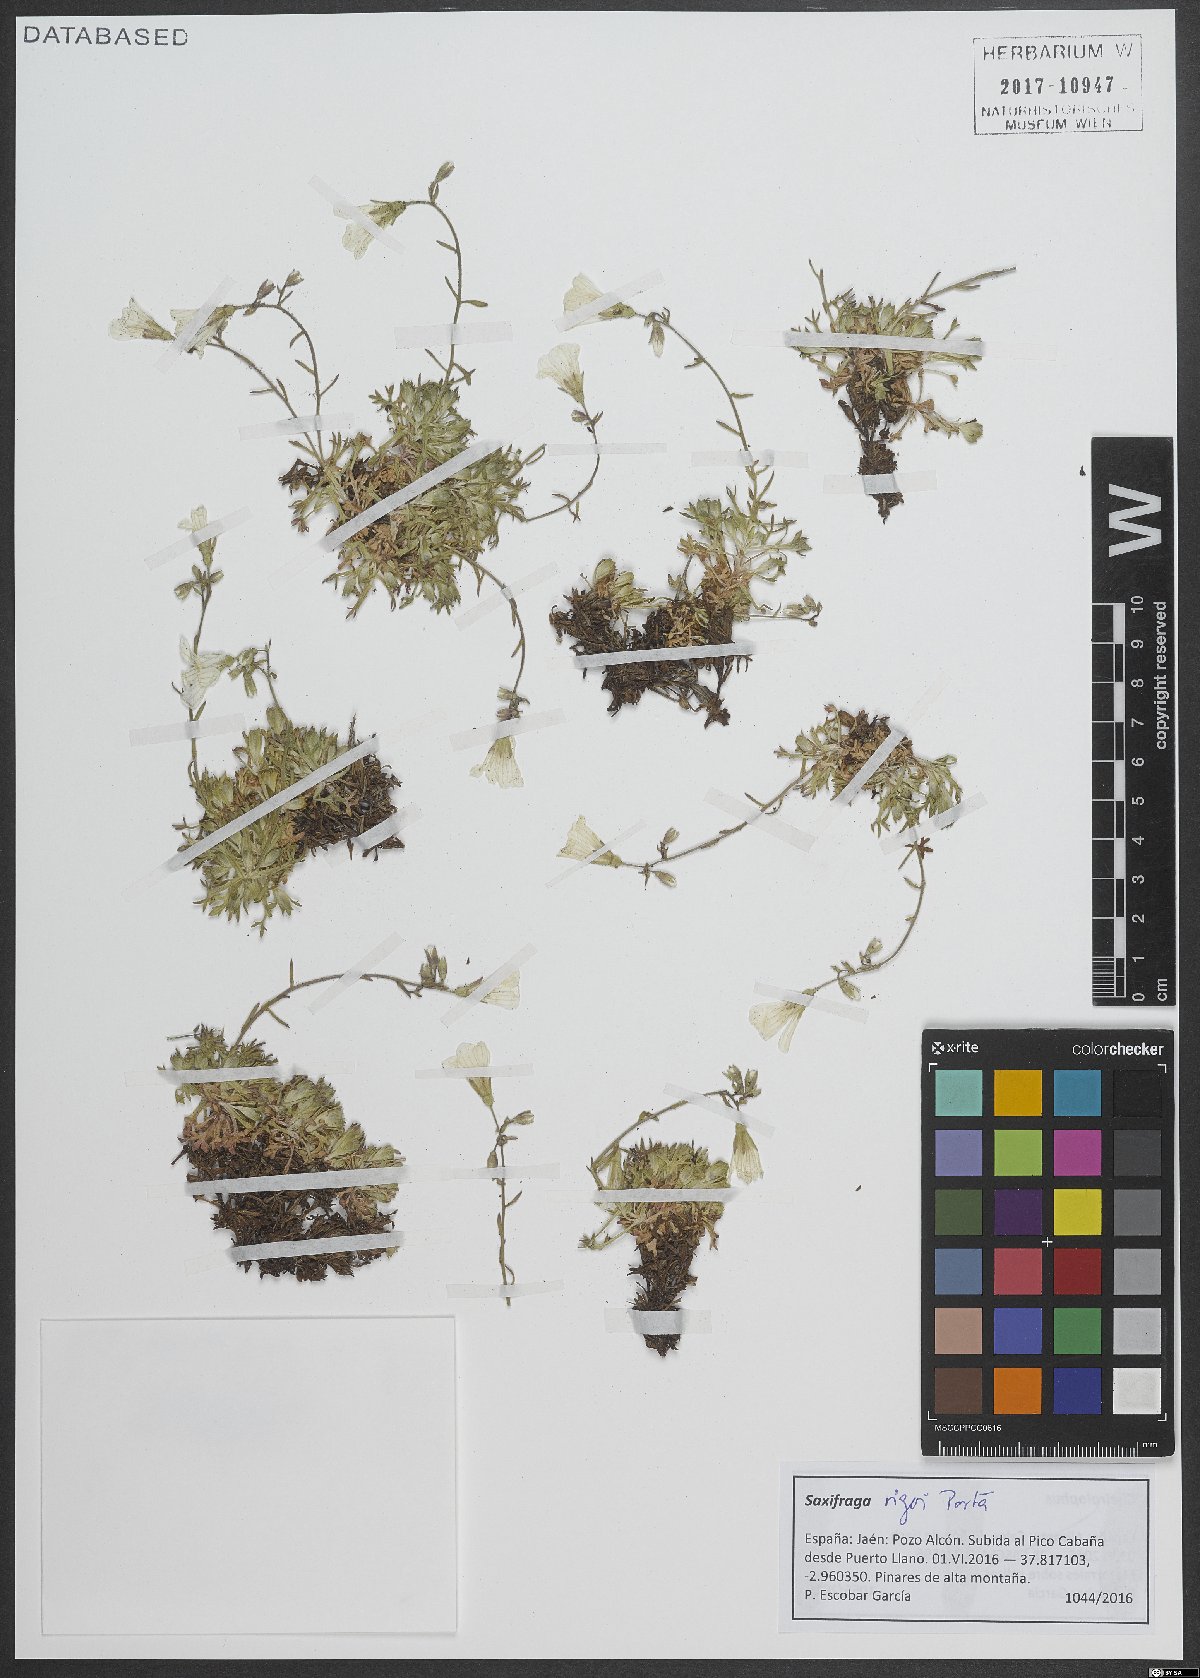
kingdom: Plantae
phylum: Tracheophyta
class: Magnoliopsida
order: Saxifragales
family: Saxifragaceae
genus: Saxifraga
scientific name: Saxifraga rigoi
